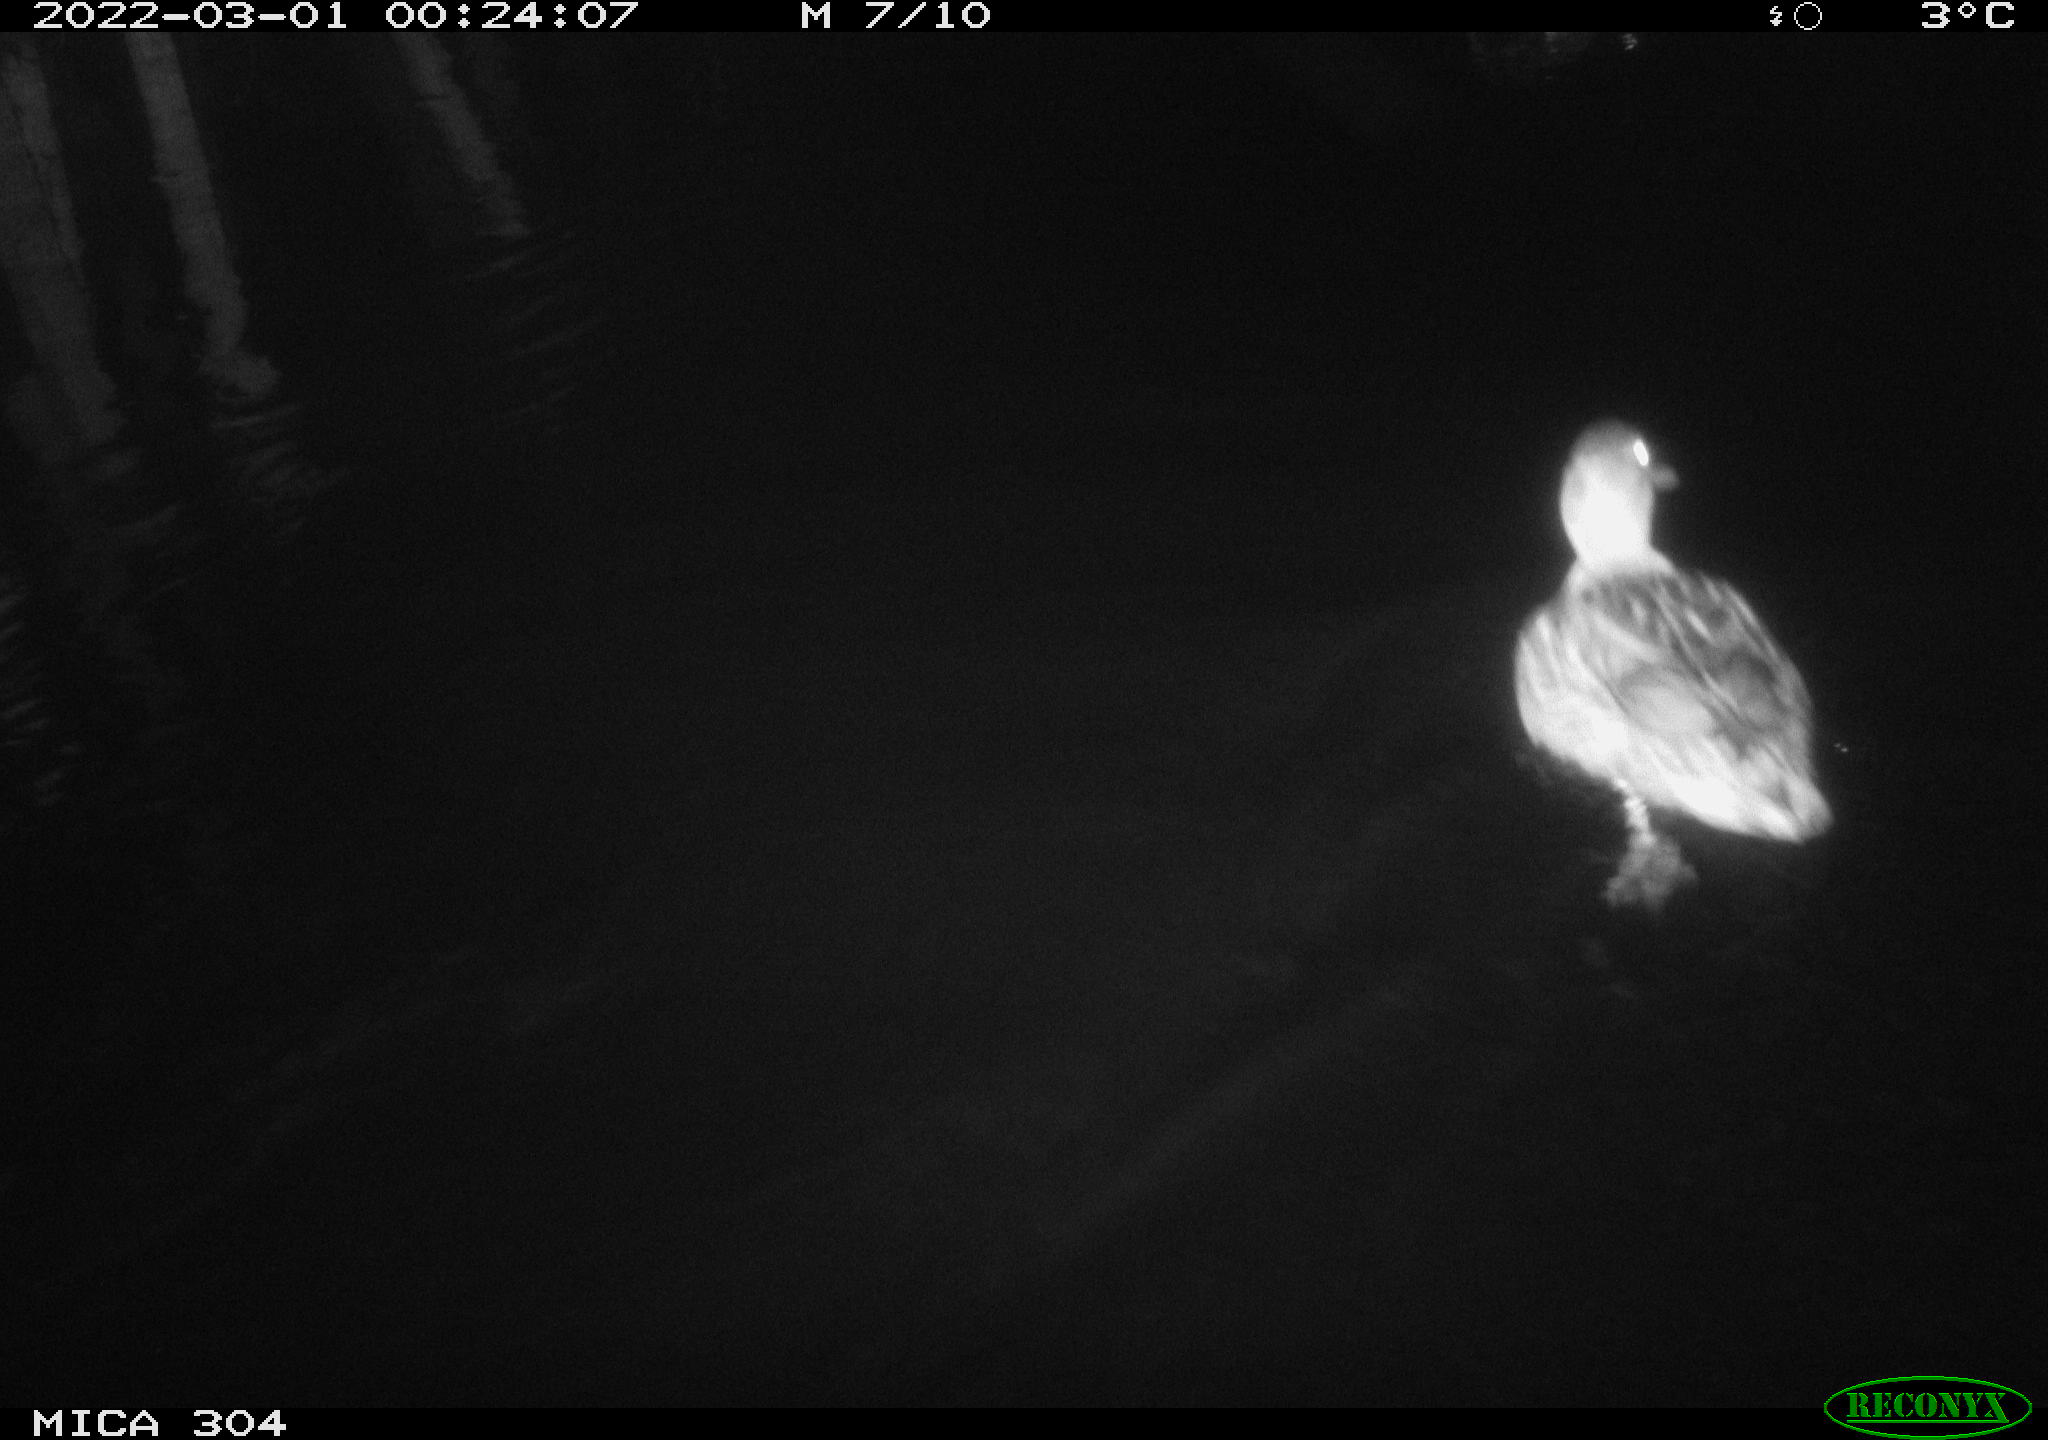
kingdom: Animalia
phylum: Chordata
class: Aves
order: Anseriformes
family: Anatidae
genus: Anas
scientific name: Anas platyrhynchos
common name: Mallard
